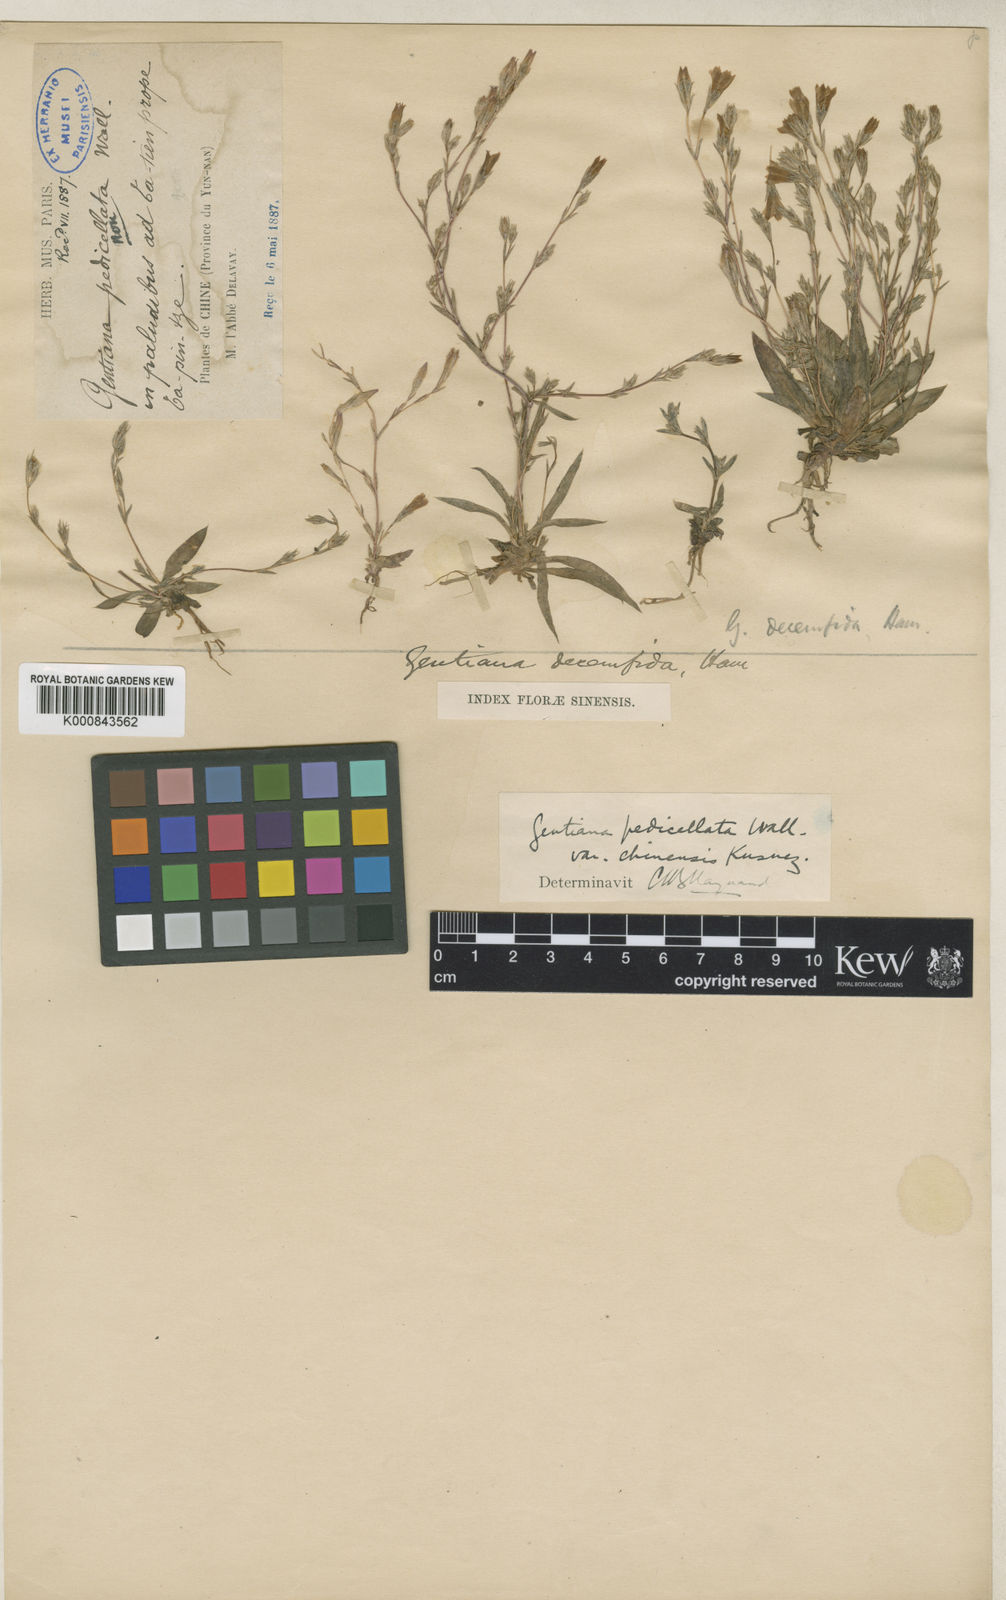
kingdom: Plantae
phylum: Tracheophyta
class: Magnoliopsida
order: Gentianales
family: Gentianaceae
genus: Gentiana
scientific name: Gentiana delicatula
